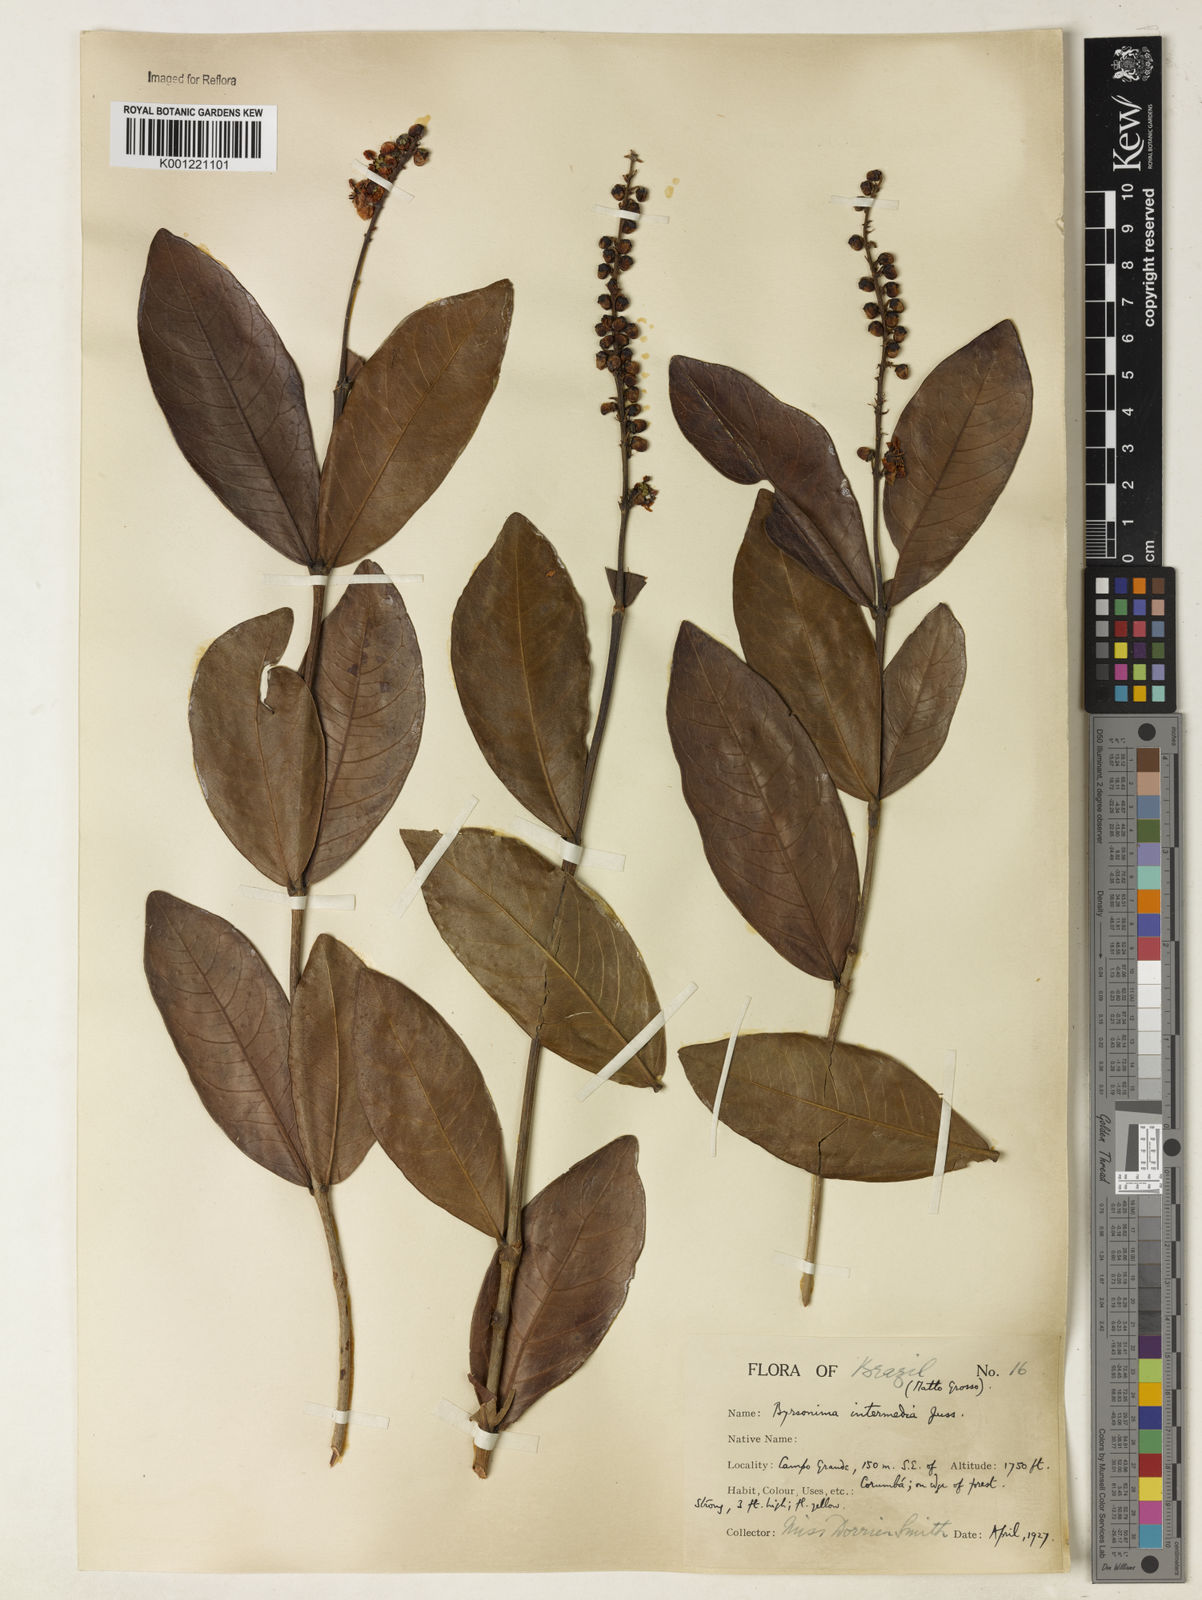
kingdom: Plantae
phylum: Tracheophyta
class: Magnoliopsida
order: Malpighiales
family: Malpighiaceae
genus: Byrsonima
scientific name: Byrsonima intermedia
